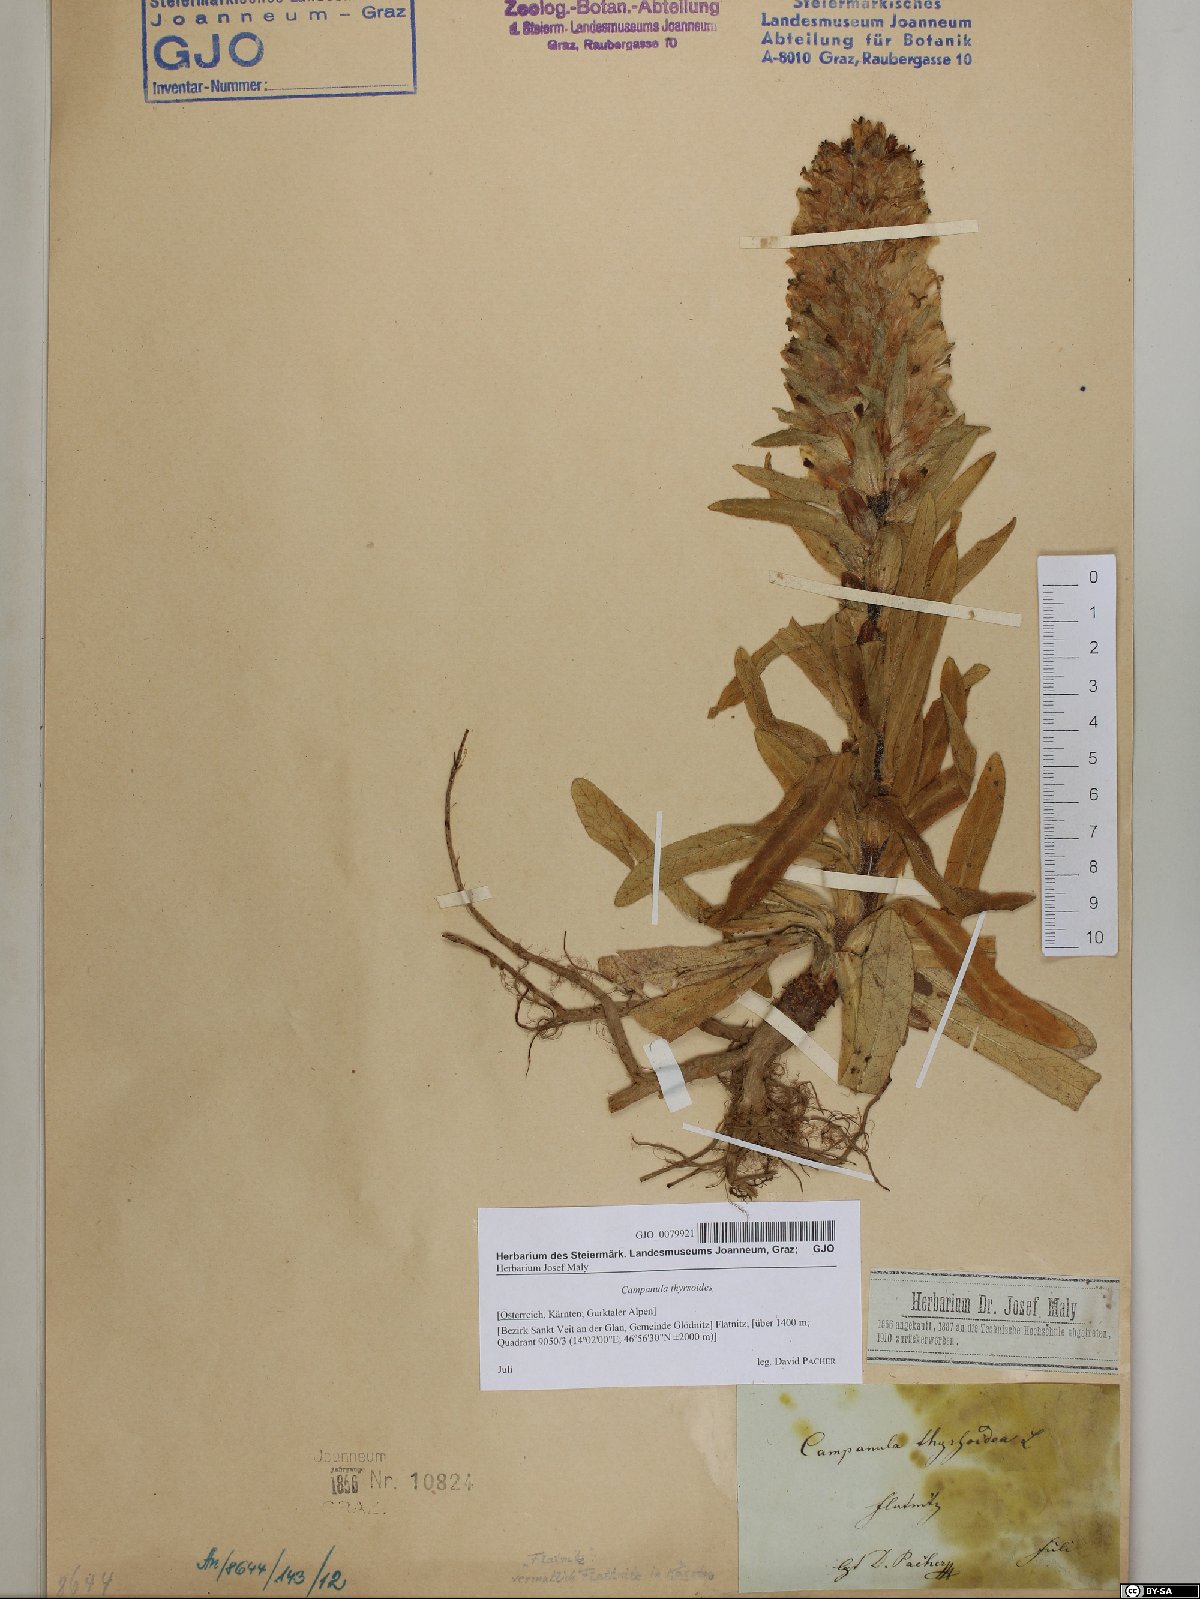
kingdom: Plantae
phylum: Tracheophyta
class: Magnoliopsida
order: Asterales
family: Campanulaceae
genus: Campanula
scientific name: Campanula thyrsoides
